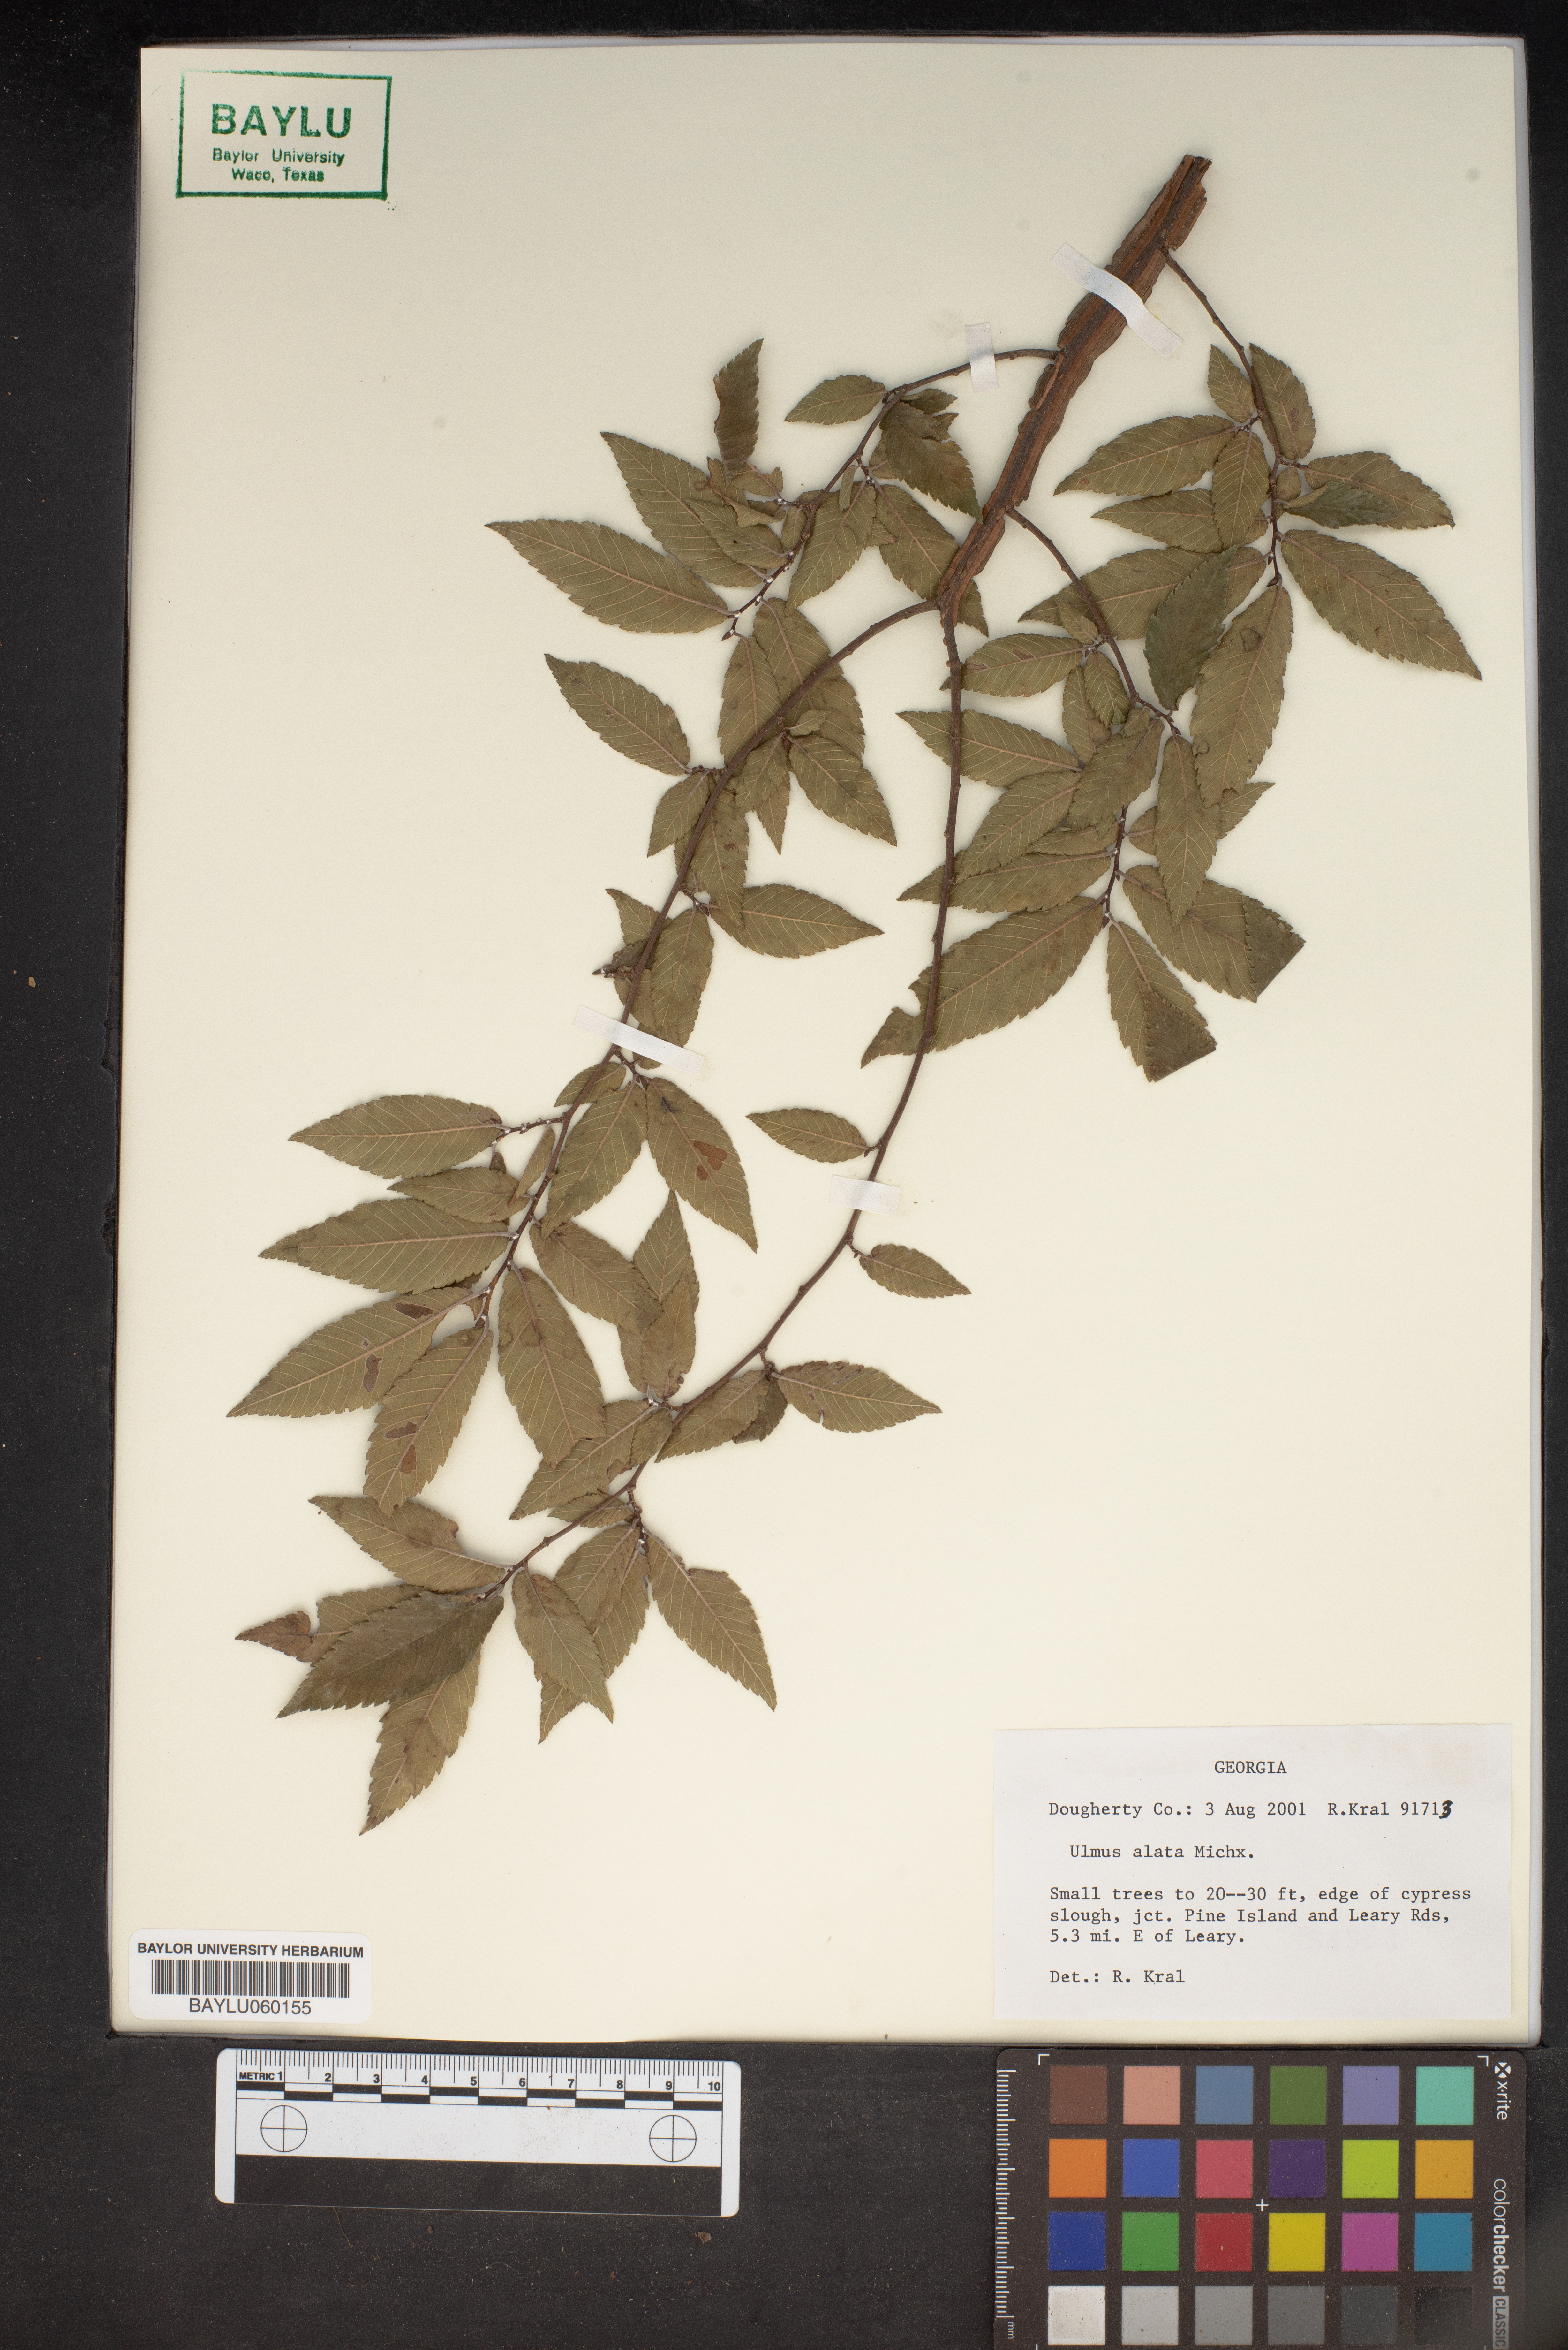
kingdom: Plantae
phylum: Tracheophyta
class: Magnoliopsida
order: Rosales
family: Ulmaceae
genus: Ulmus
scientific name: Ulmus alata
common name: Winged elm
